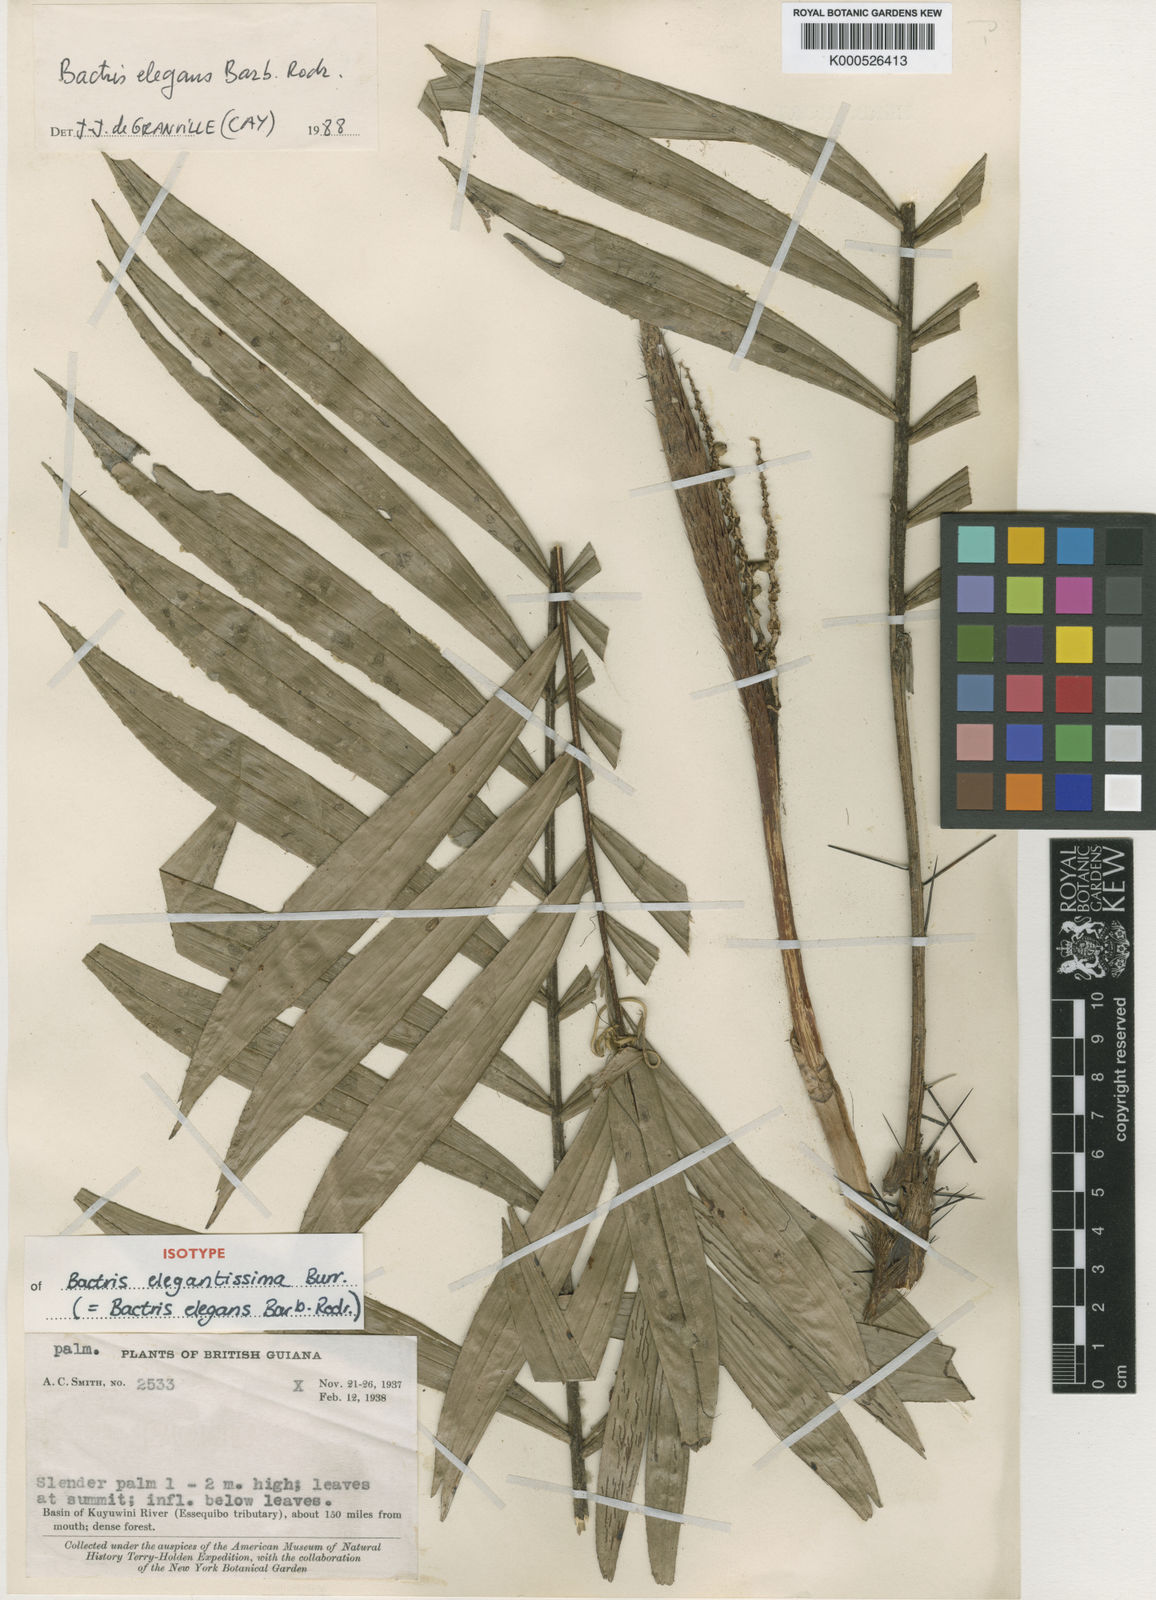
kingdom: Plantae
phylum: Tracheophyta
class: Liliopsida
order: Arecales
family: Arecaceae
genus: Bactris
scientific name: Bactris
